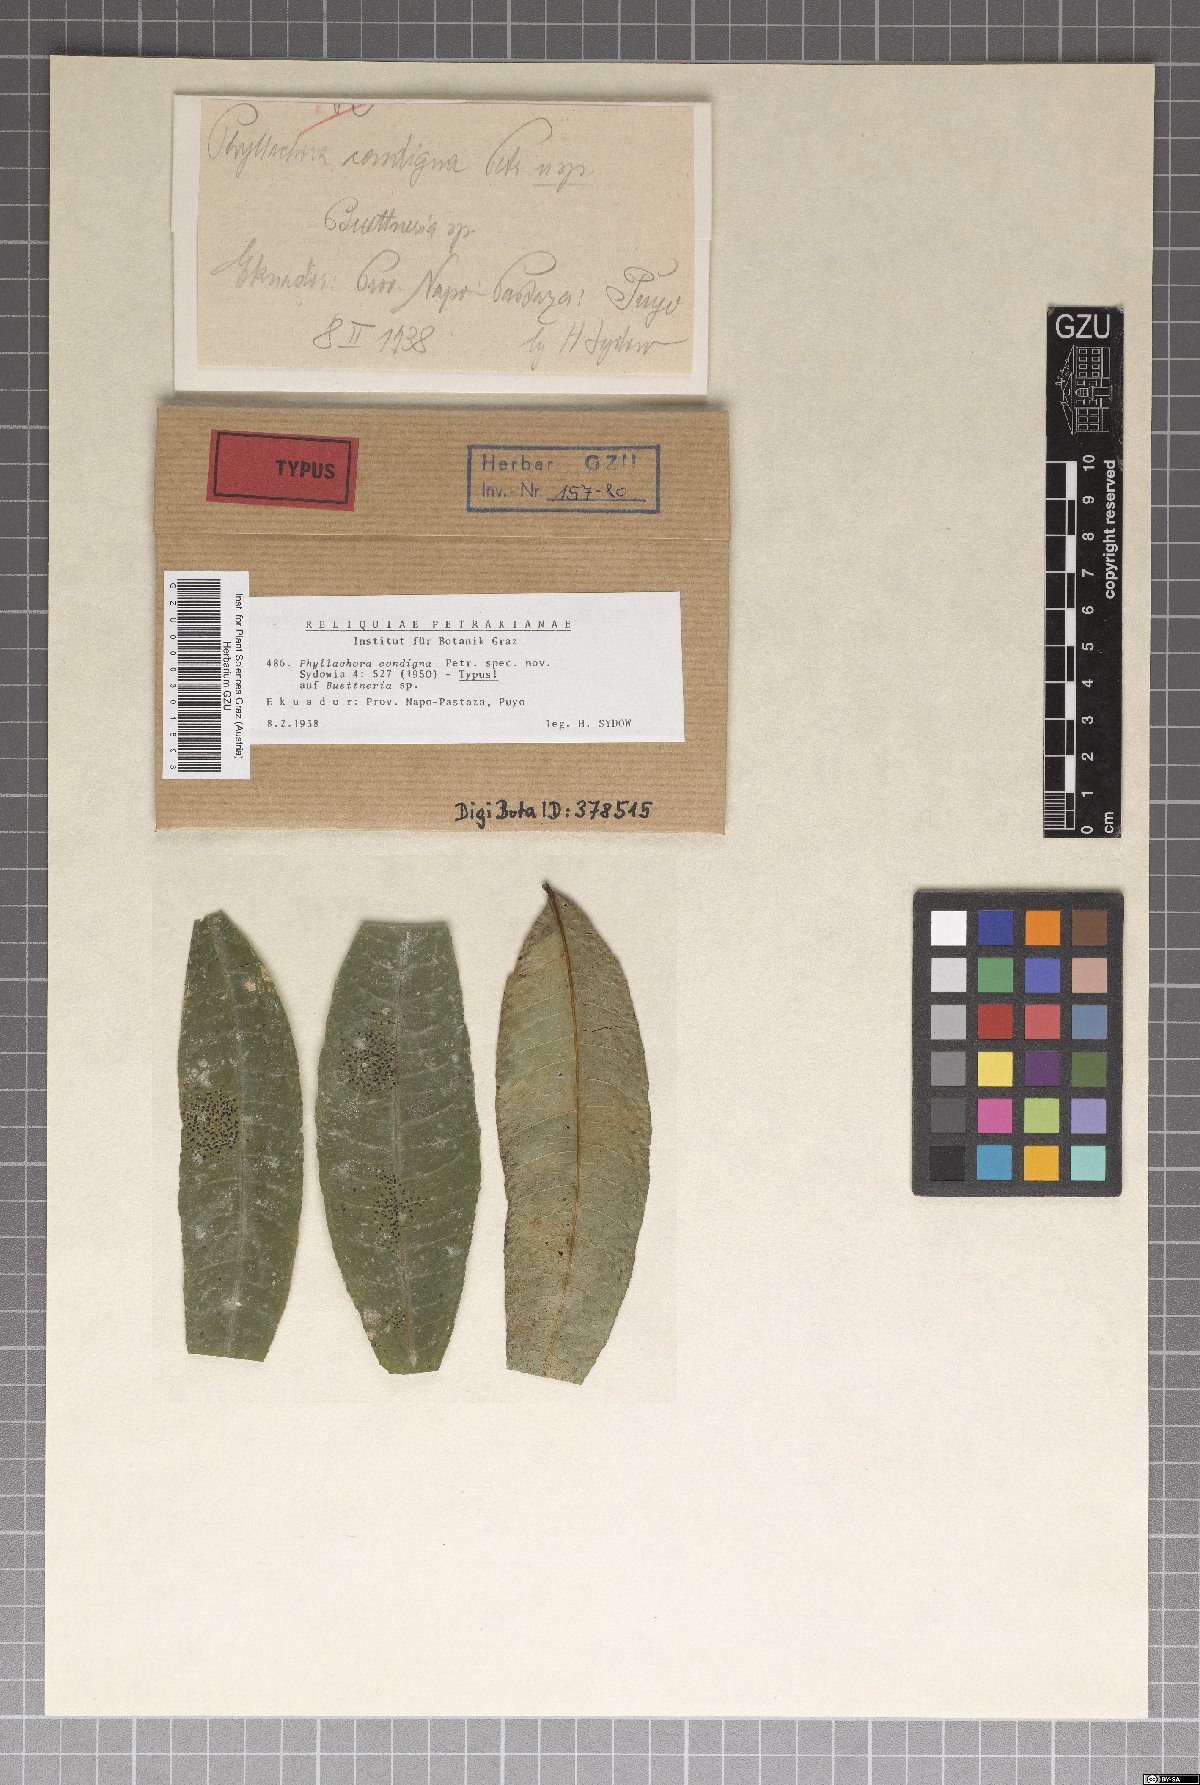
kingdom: Fungi
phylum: Ascomycota
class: Sordariomycetes
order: Phyllachorales
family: Phyllachoraceae
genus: Phyllachora
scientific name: Phyllachora condigna
